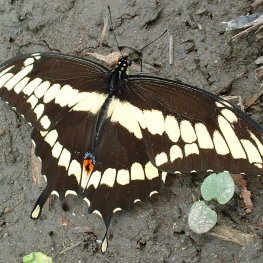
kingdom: Animalia
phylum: Arthropoda
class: Insecta
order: Lepidoptera
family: Papilionidae
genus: Papilio
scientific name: Papilio cresphontes
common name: Eastern Giant Swallowtail
